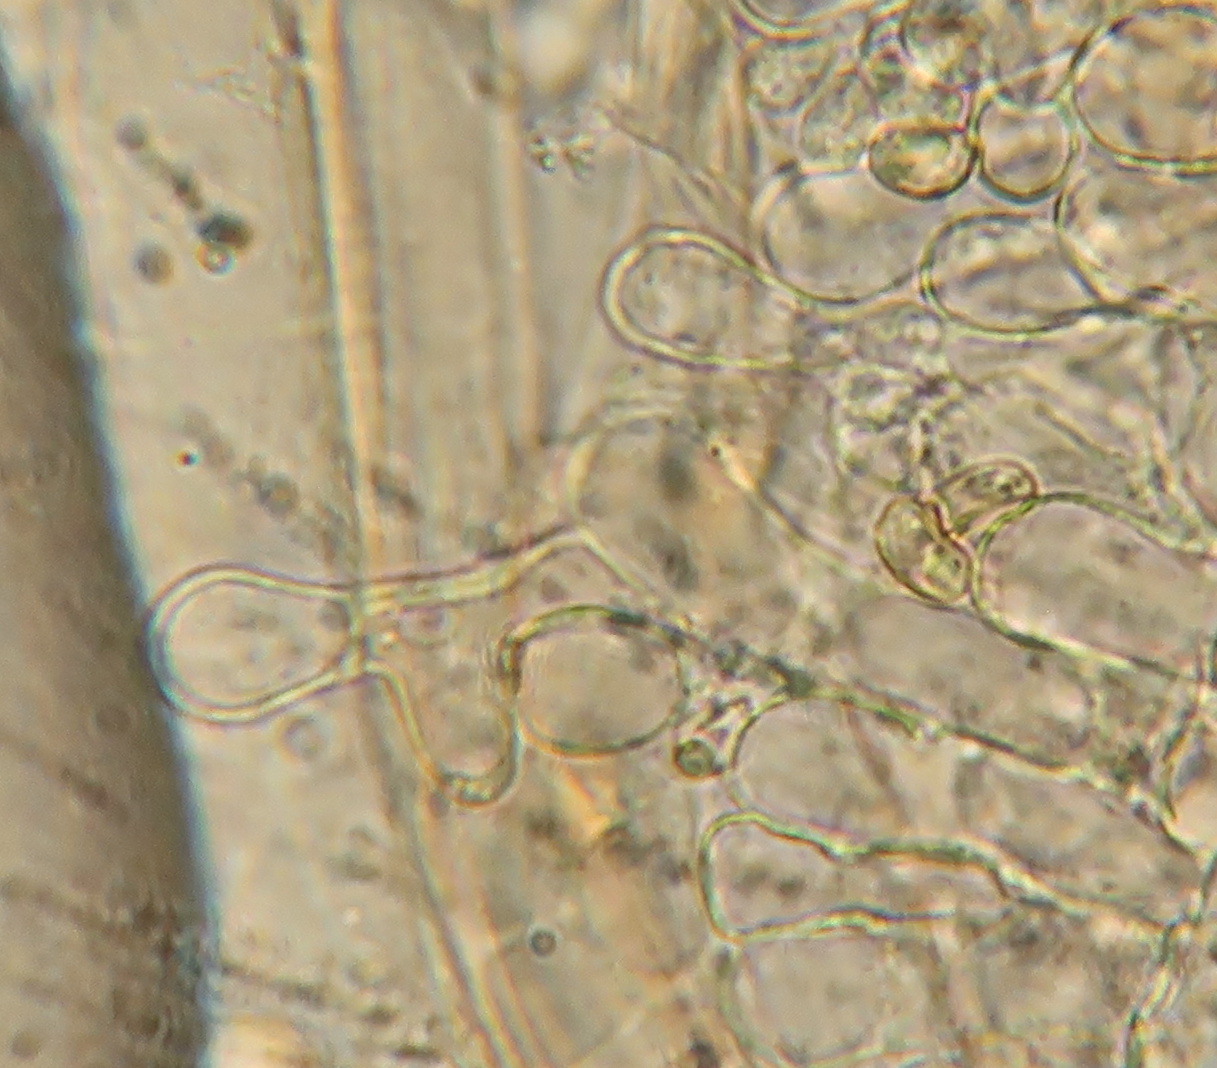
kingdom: Fungi
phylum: Basidiomycota
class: Agaricomycetes
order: Agaricales
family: Tubariaceae
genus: Tubaria
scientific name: Tubaria furfuracea
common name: kliddet fnughat
